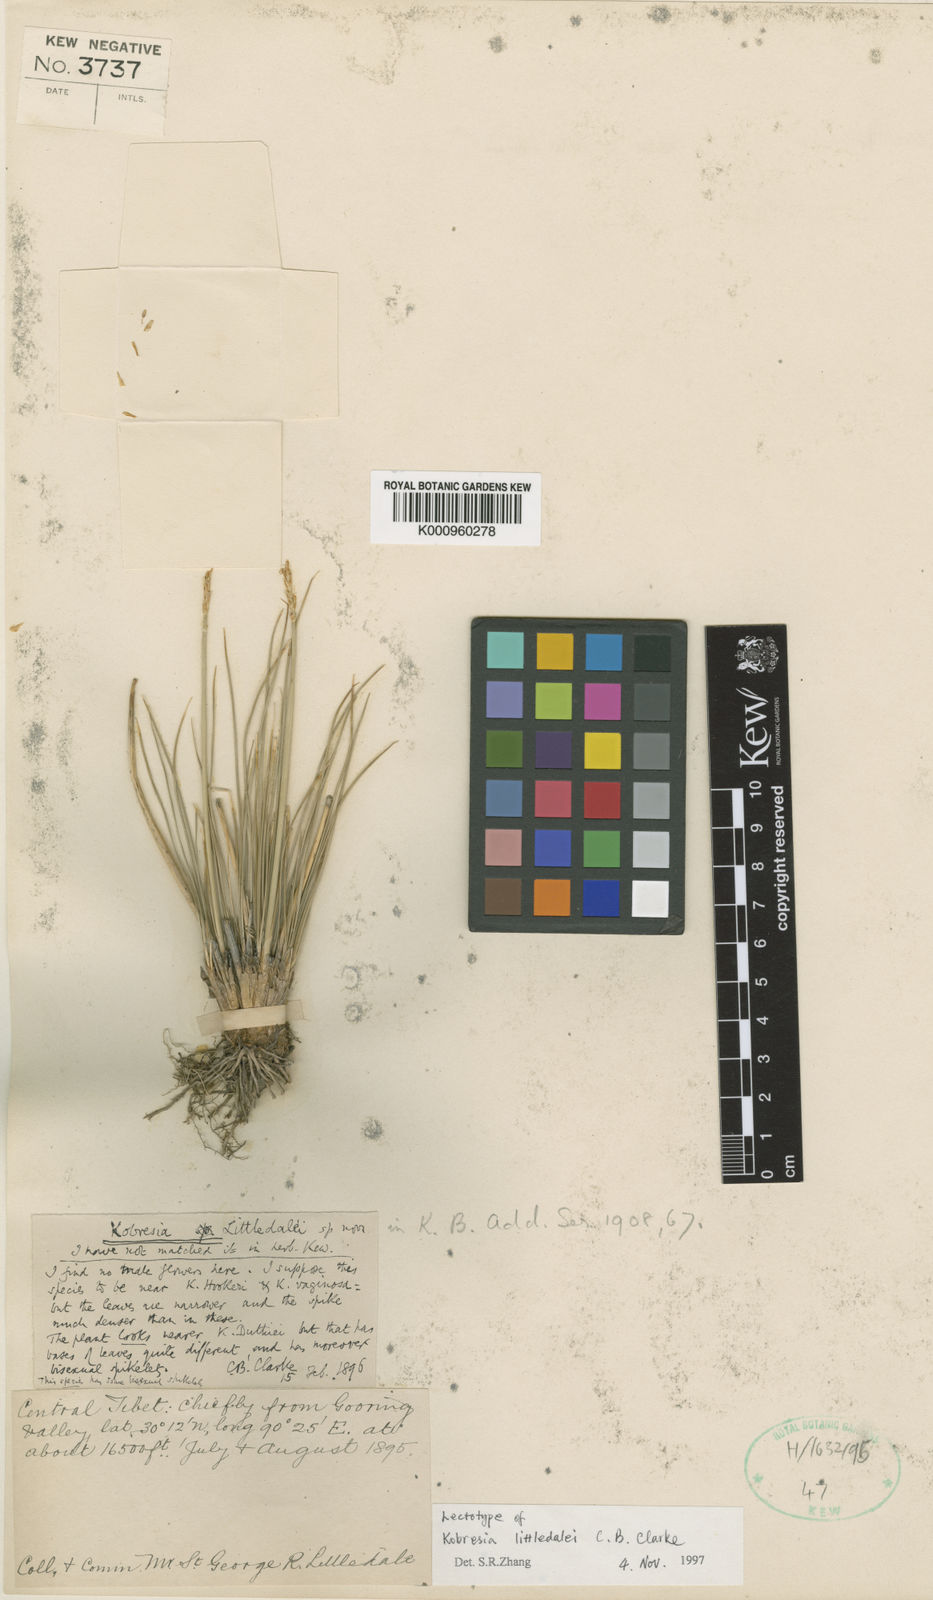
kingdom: Plantae
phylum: Tracheophyta
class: Magnoliopsida
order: Lamiales
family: Lamiaceae
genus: Marrubium
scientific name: Marrubium astracanicum
